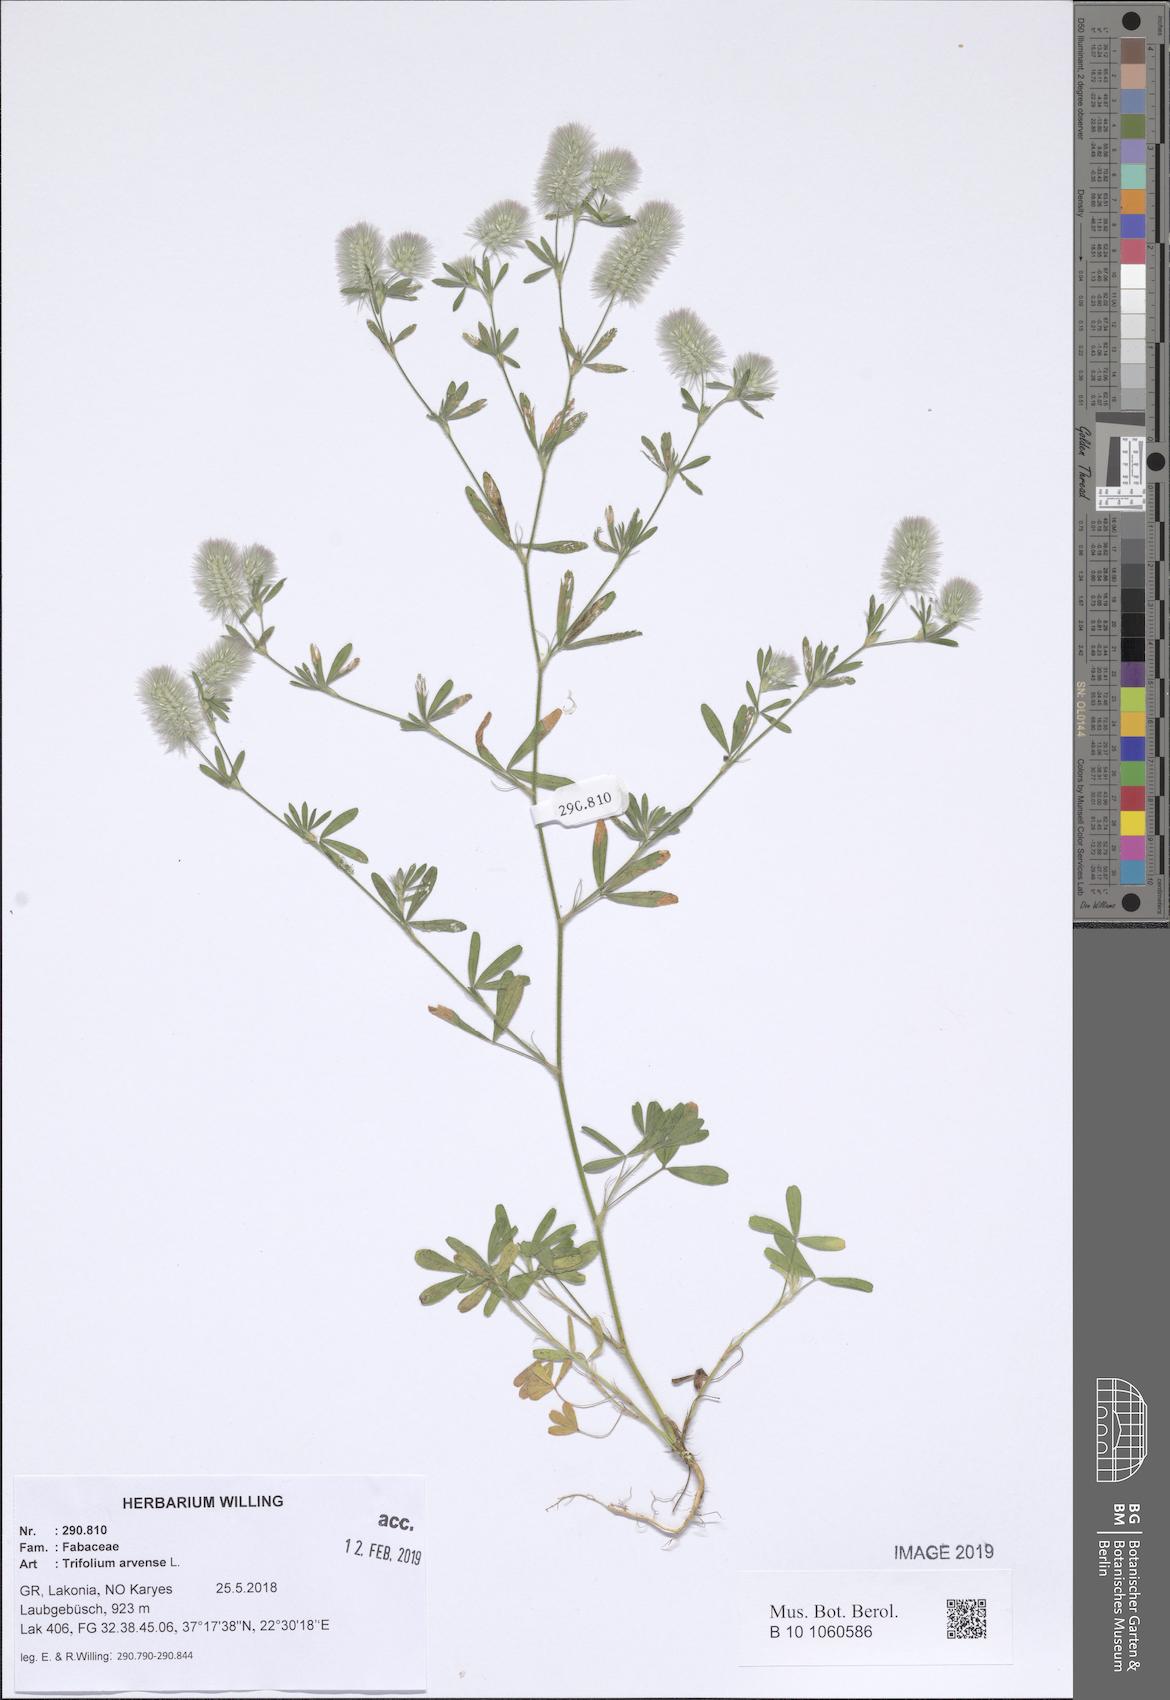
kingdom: Plantae
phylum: Tracheophyta
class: Magnoliopsida
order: Fabales
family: Fabaceae
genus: Trifolium
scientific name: Trifolium arvense
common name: Hare's-foot clover
